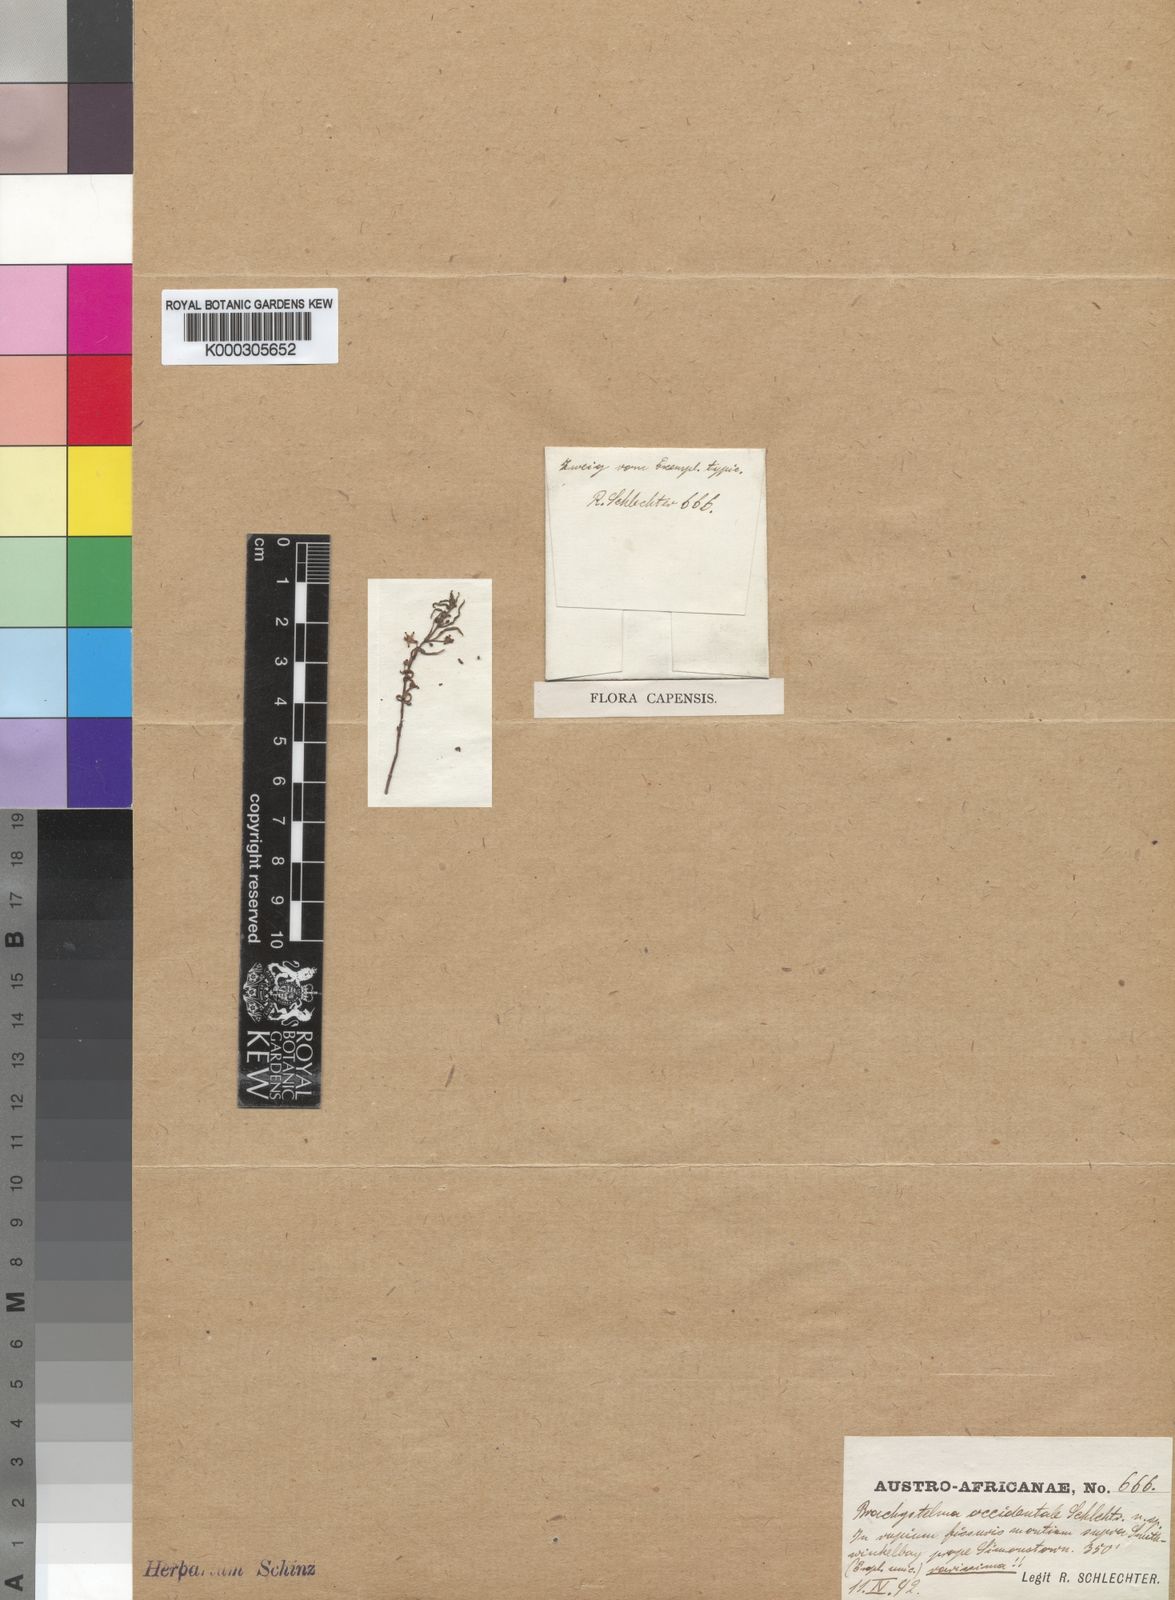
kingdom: Plantae
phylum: Tracheophyta
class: Magnoliopsida
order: Gentianales
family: Apocynaceae
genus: Ceropegia
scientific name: Ceropegia occidens
